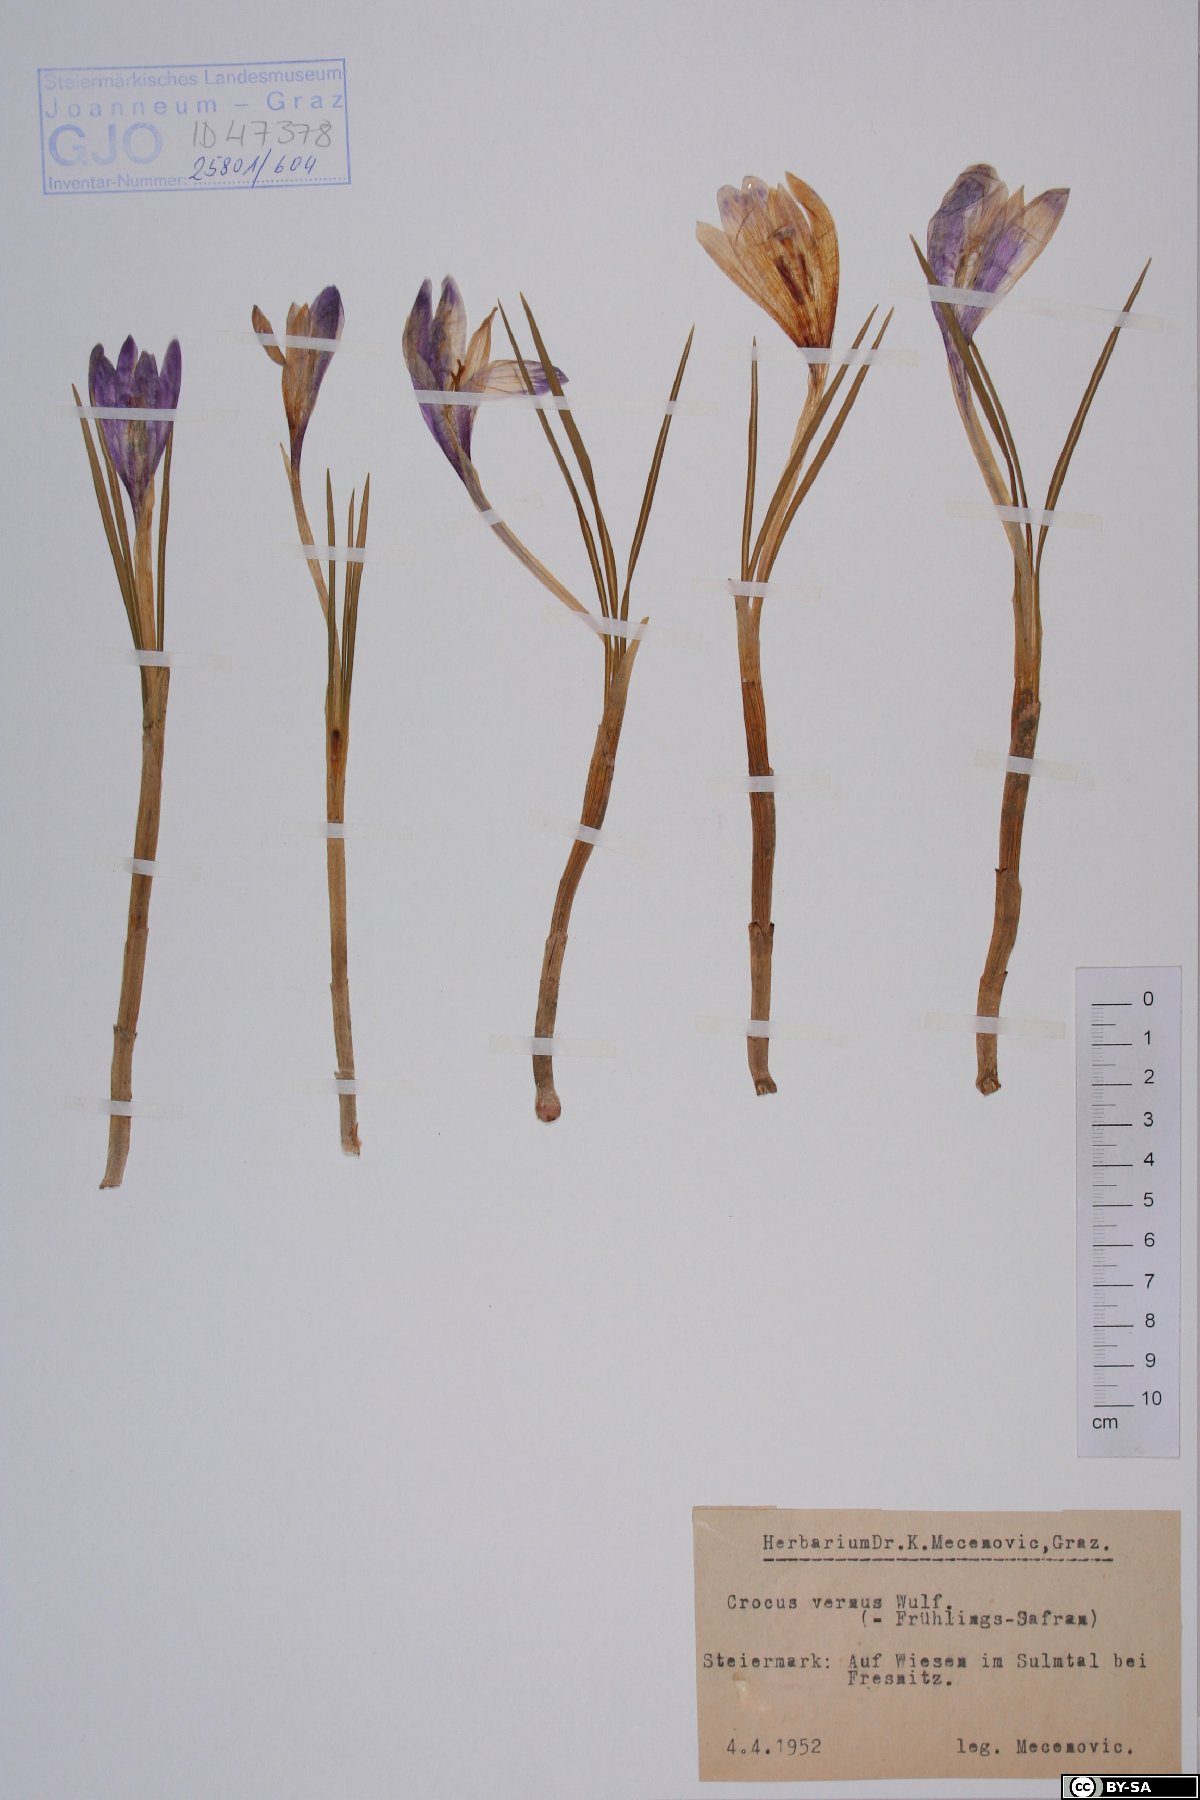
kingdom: Plantae
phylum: Tracheophyta
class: Liliopsida
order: Asparagales
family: Iridaceae
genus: Crocus
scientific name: Crocus vernus
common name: Spring crocus
